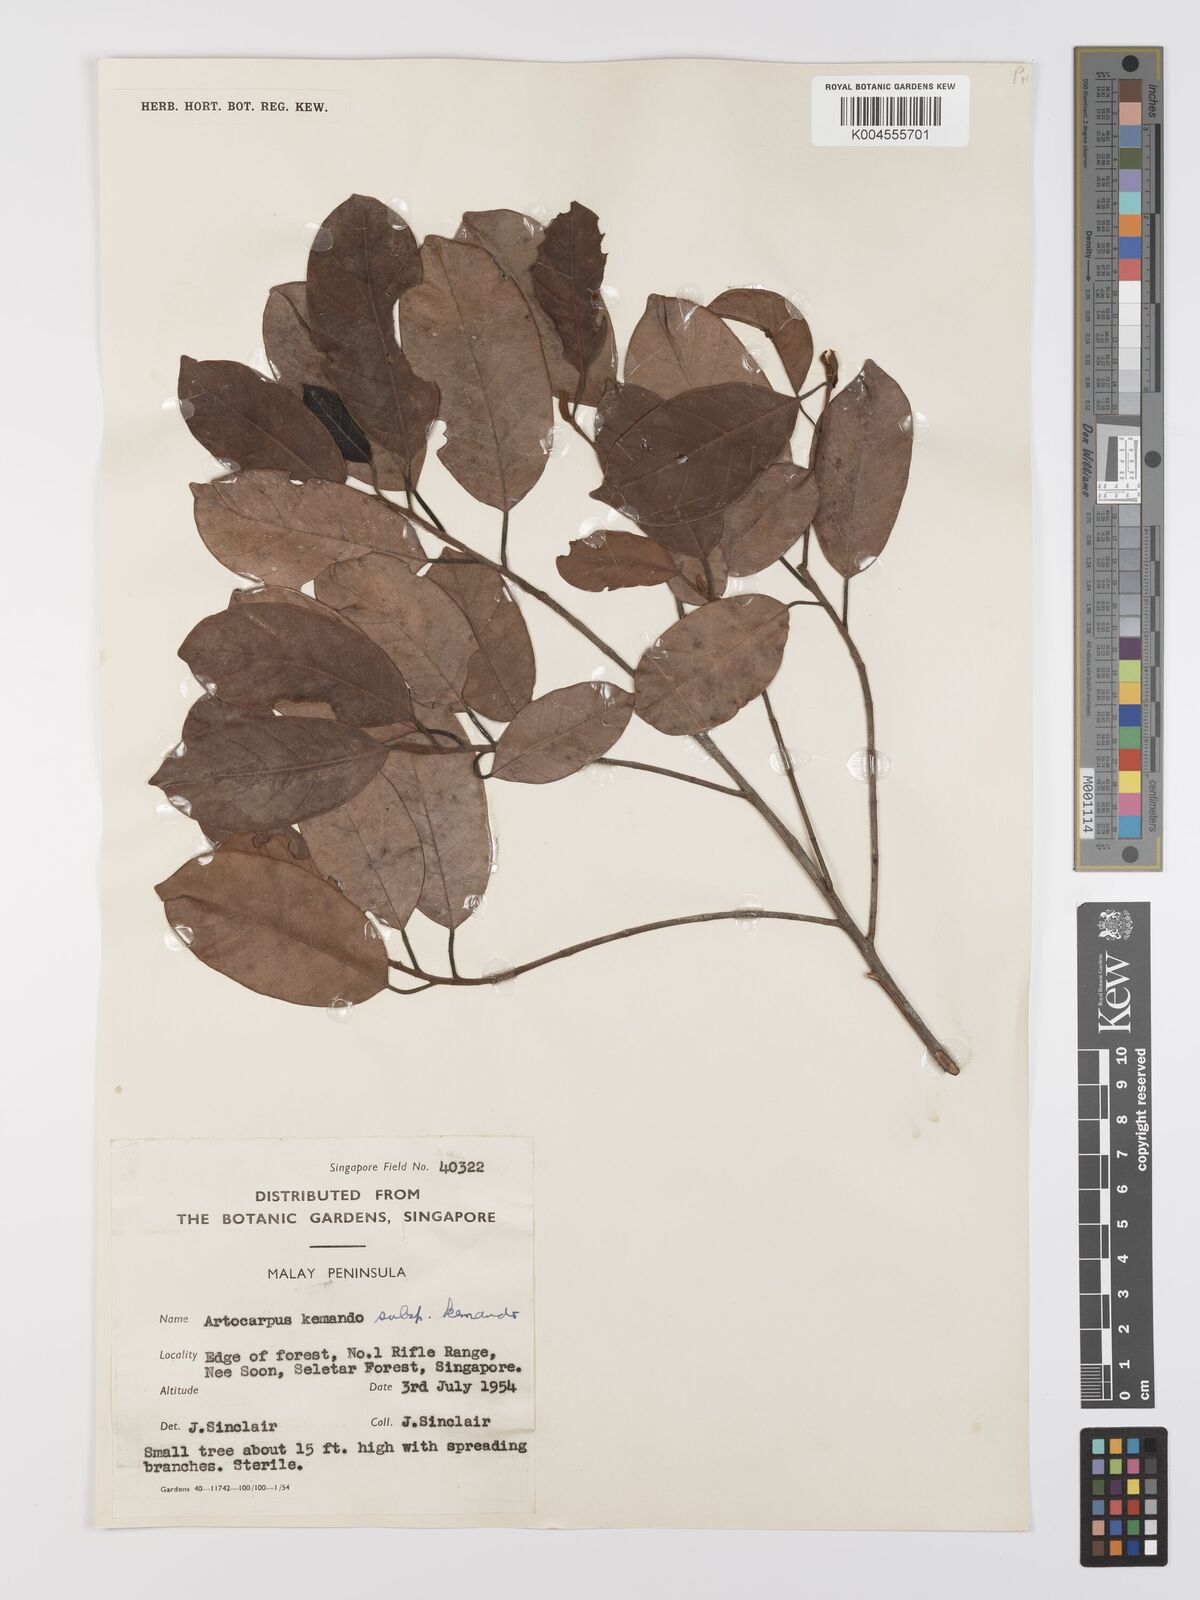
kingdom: Plantae
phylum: Tracheophyta
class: Magnoliopsida
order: Rosales
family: Moraceae
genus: Artocarpus
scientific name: Artocarpus kemando
